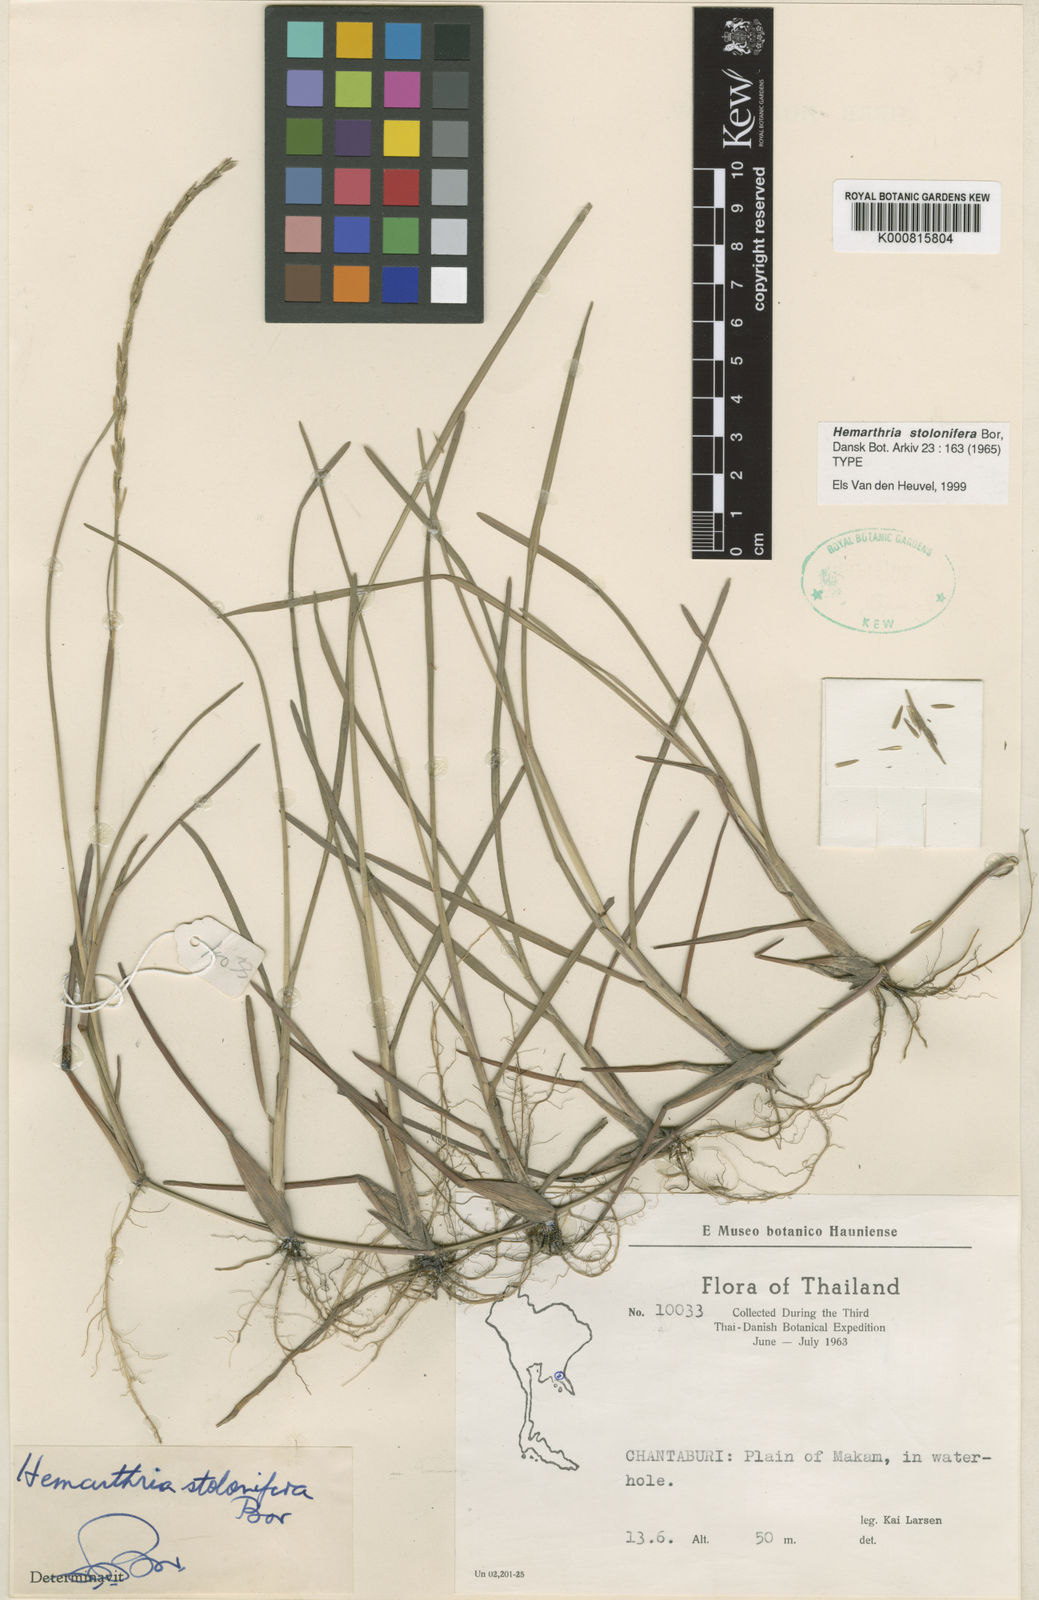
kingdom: Plantae
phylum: Tracheophyta
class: Liliopsida
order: Poales
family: Poaceae
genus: Hemarthria
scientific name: Hemarthria stolonifera
